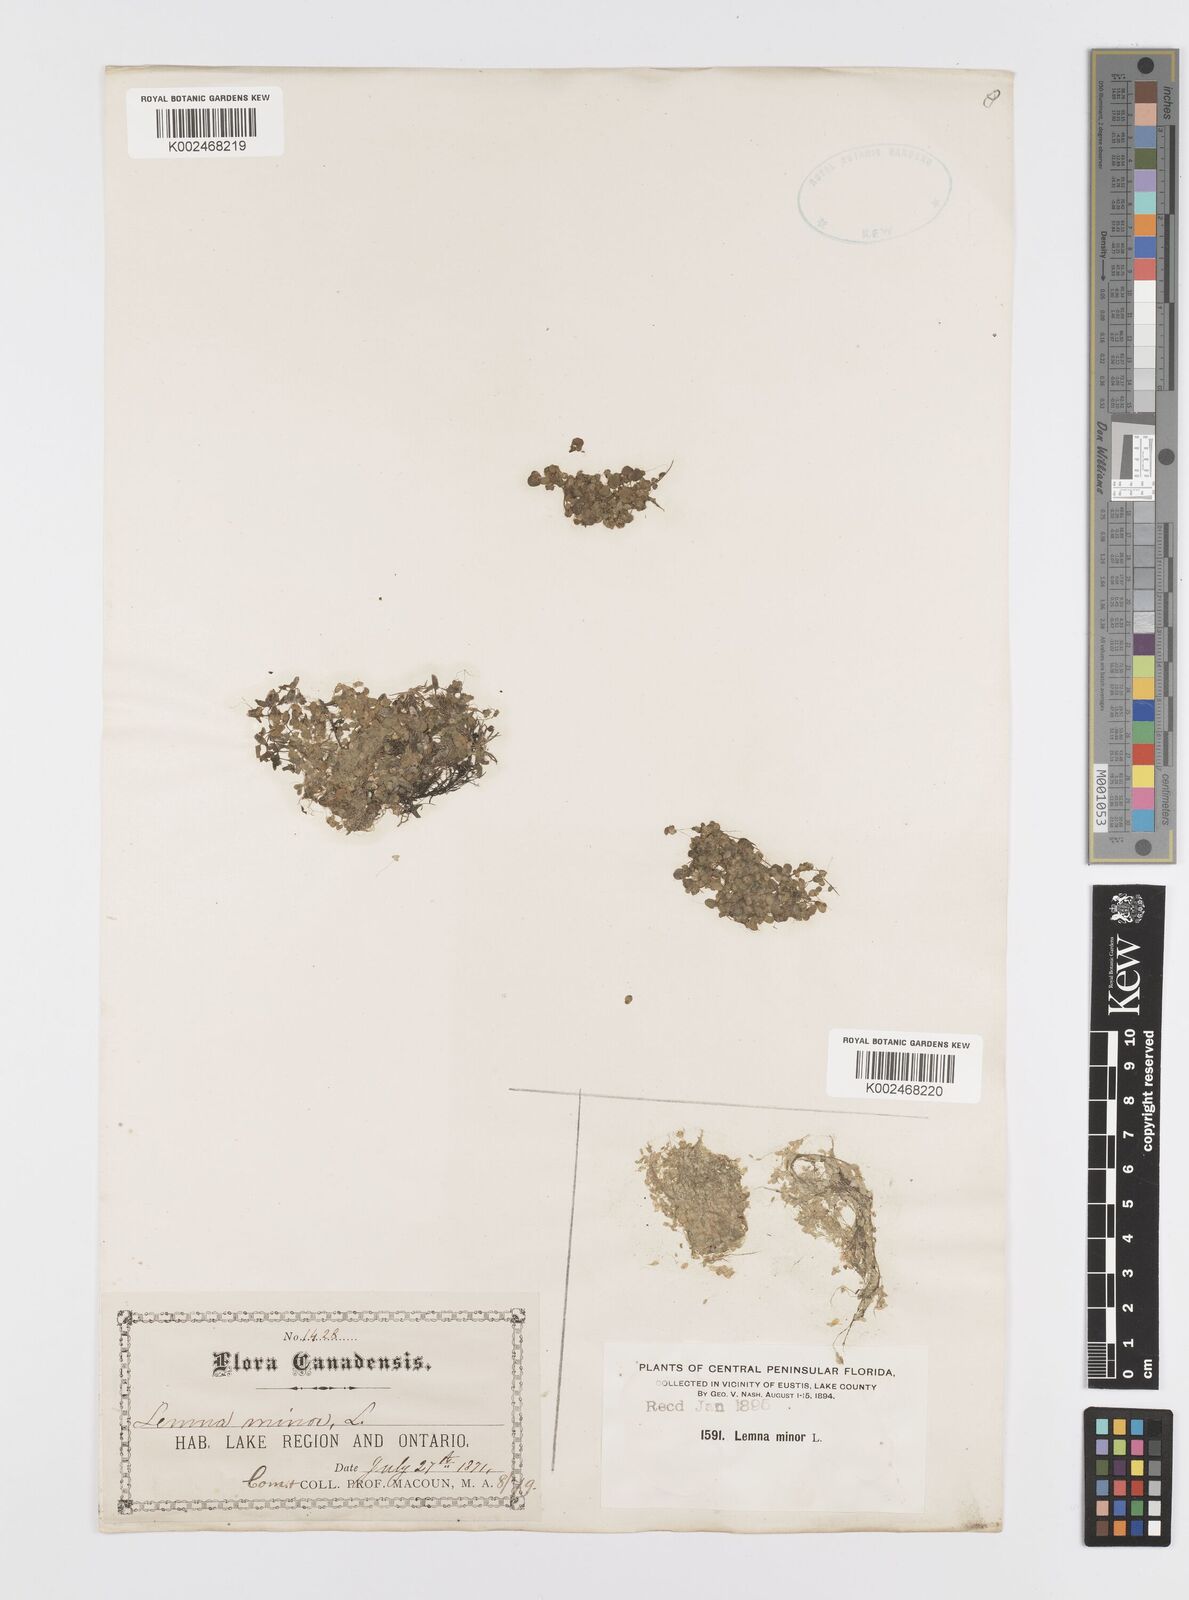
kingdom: Plantae
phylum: Tracheophyta
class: Liliopsida
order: Alismatales
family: Araceae
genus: Lemna
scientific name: Lemna minor
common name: Common duckweed
